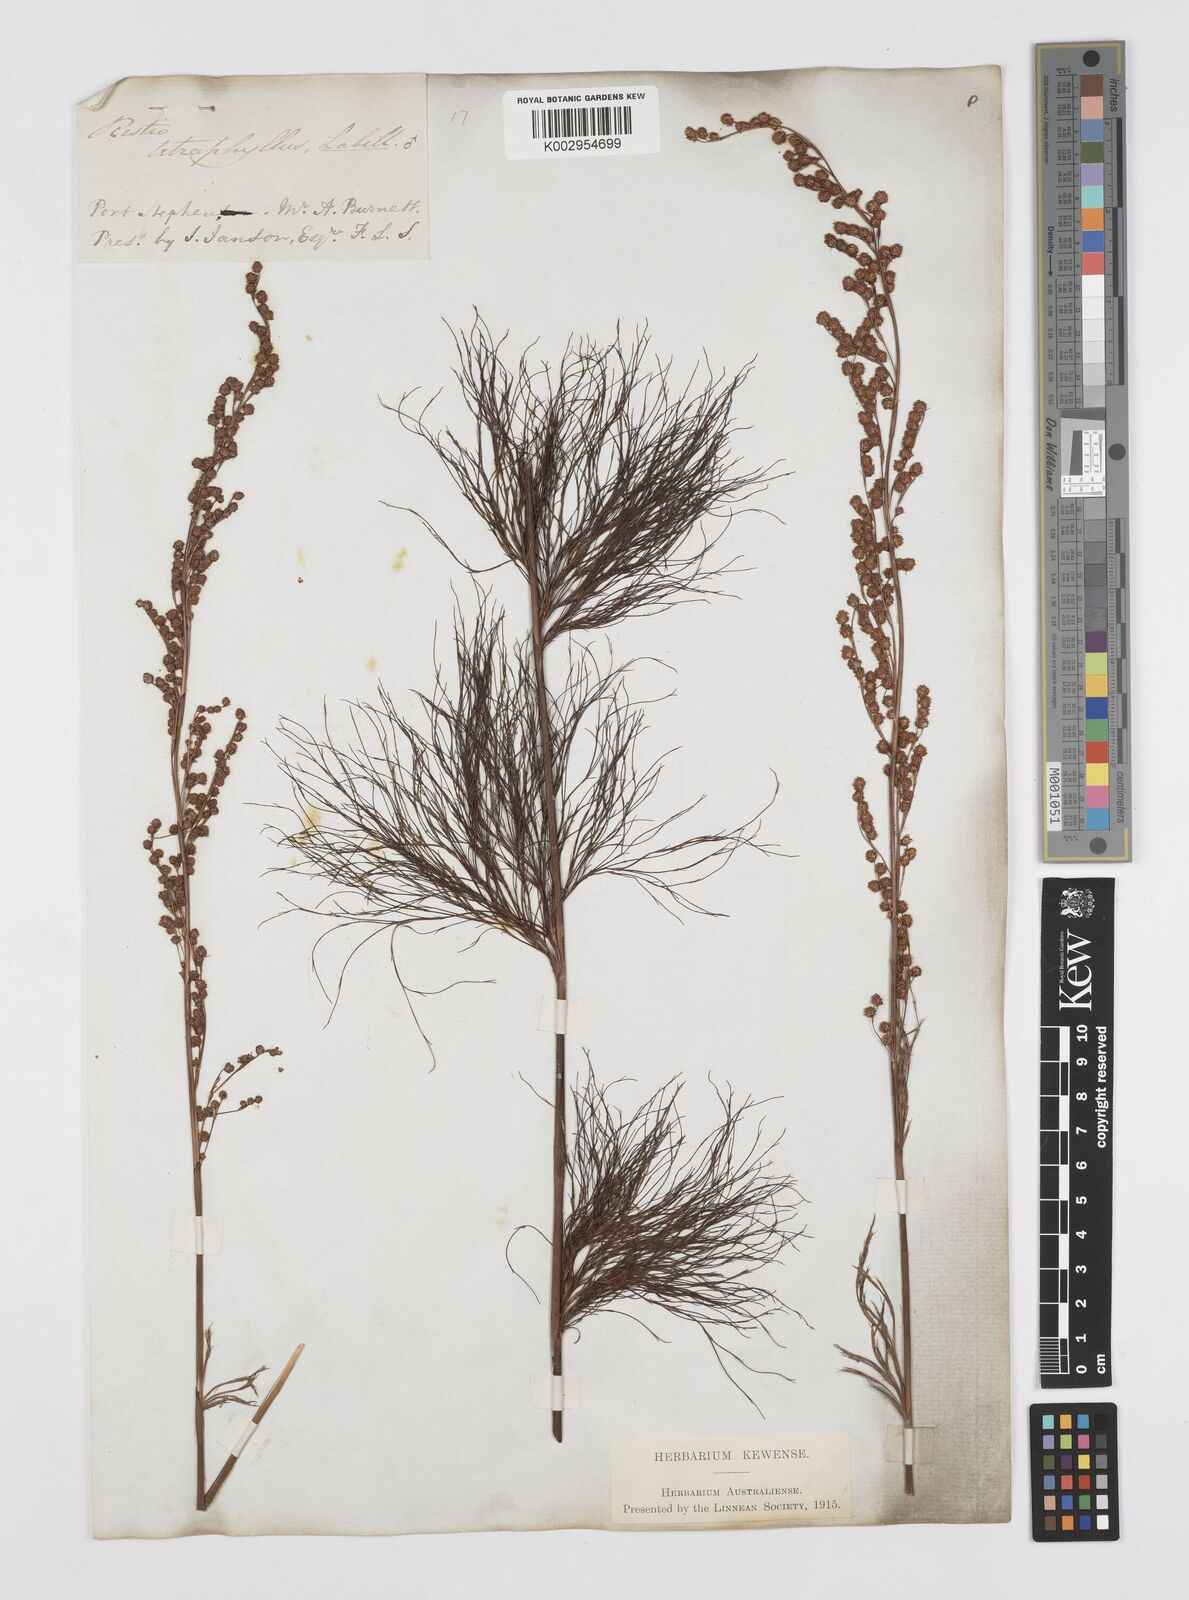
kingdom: Plantae
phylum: Tracheophyta
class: Liliopsida
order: Poales
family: Restionaceae
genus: Baloskion
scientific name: Baloskion tetraphyllum
